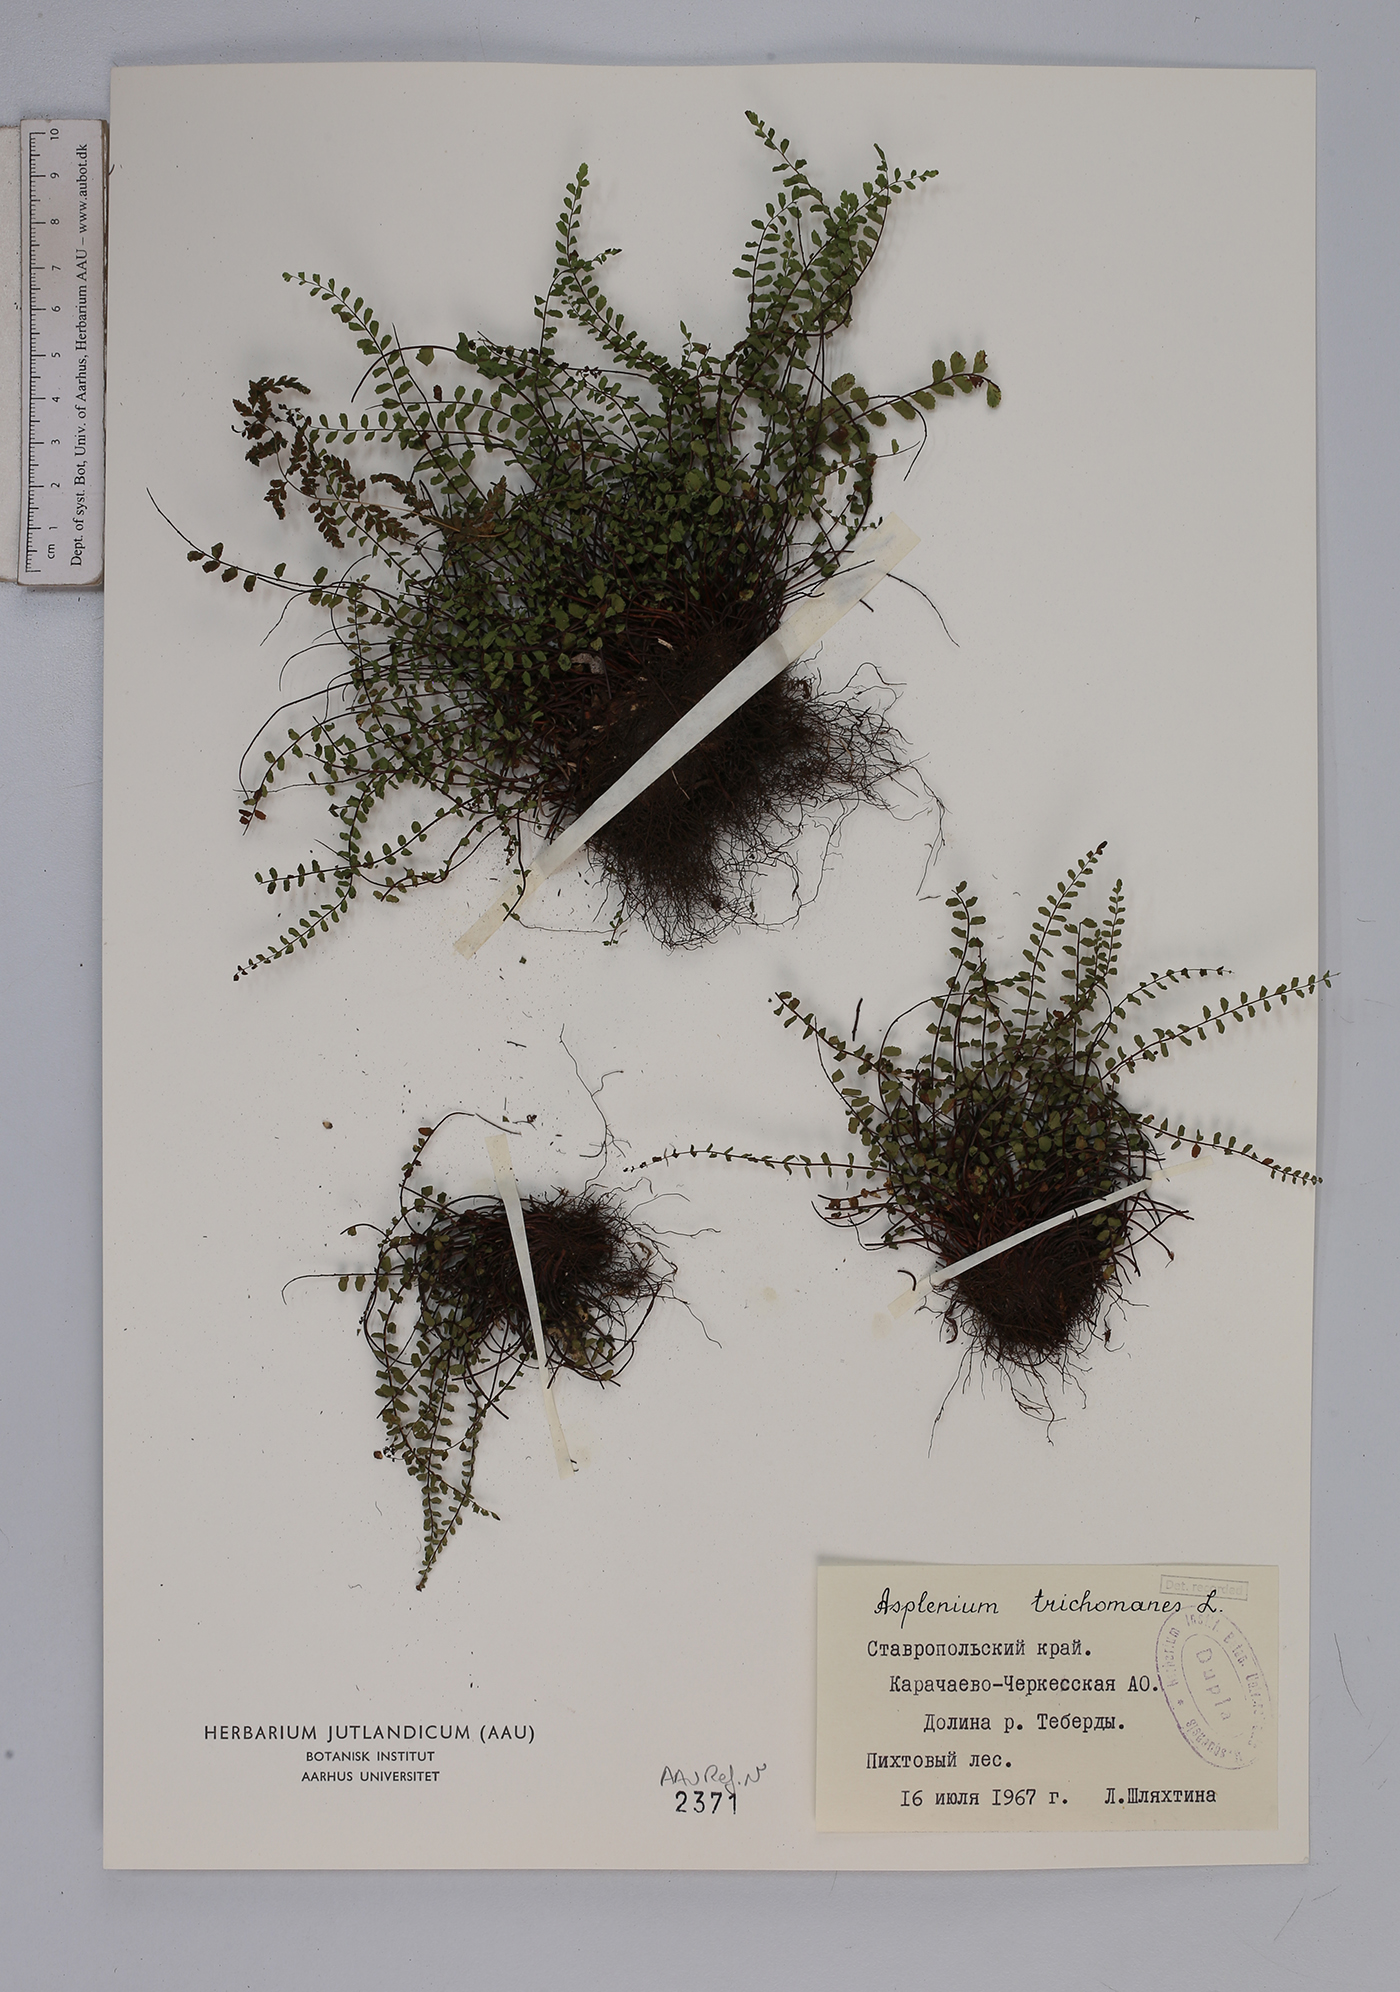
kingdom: Plantae
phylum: Tracheophyta
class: Polypodiopsida
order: Polypodiales
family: Aspleniaceae
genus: Asplenium
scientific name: Asplenium trichomanes
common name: Maidenhair spleenwort
